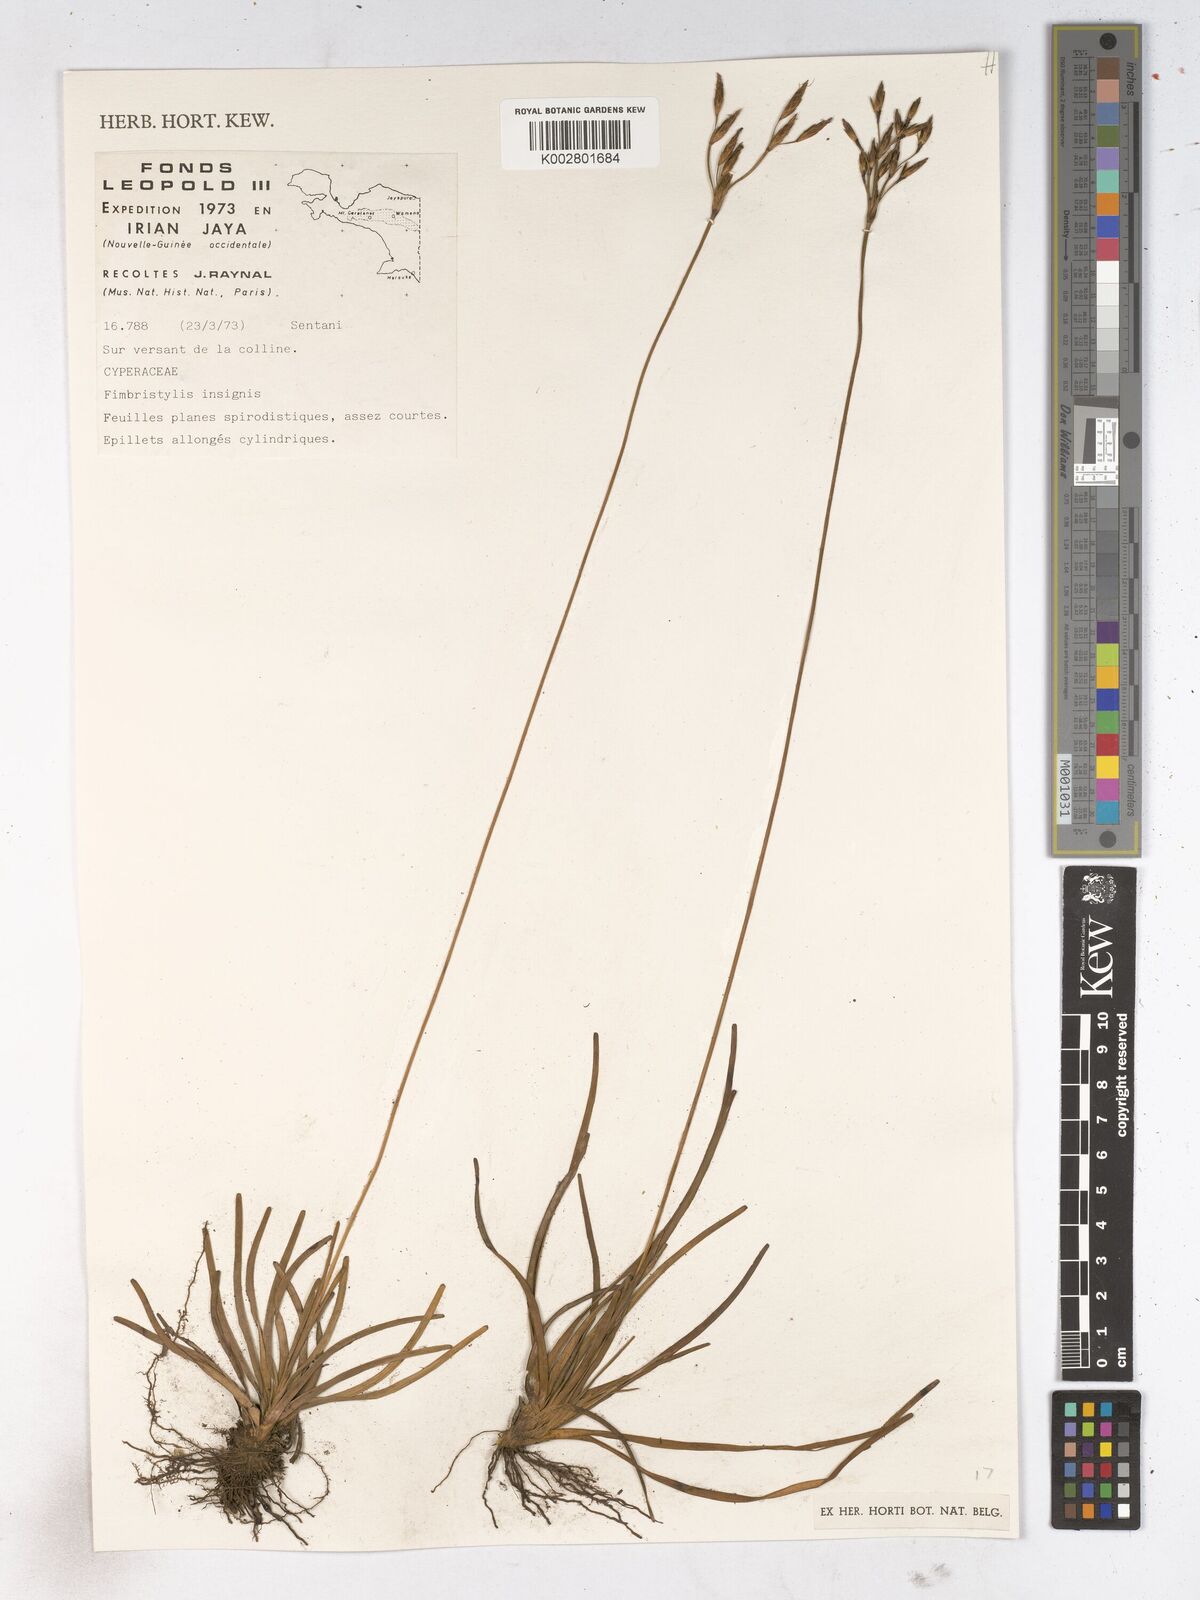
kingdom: Plantae
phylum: Tracheophyta
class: Liliopsida
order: Poales
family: Cyperaceae
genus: Fimbristylis
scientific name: Fimbristylis insignis
